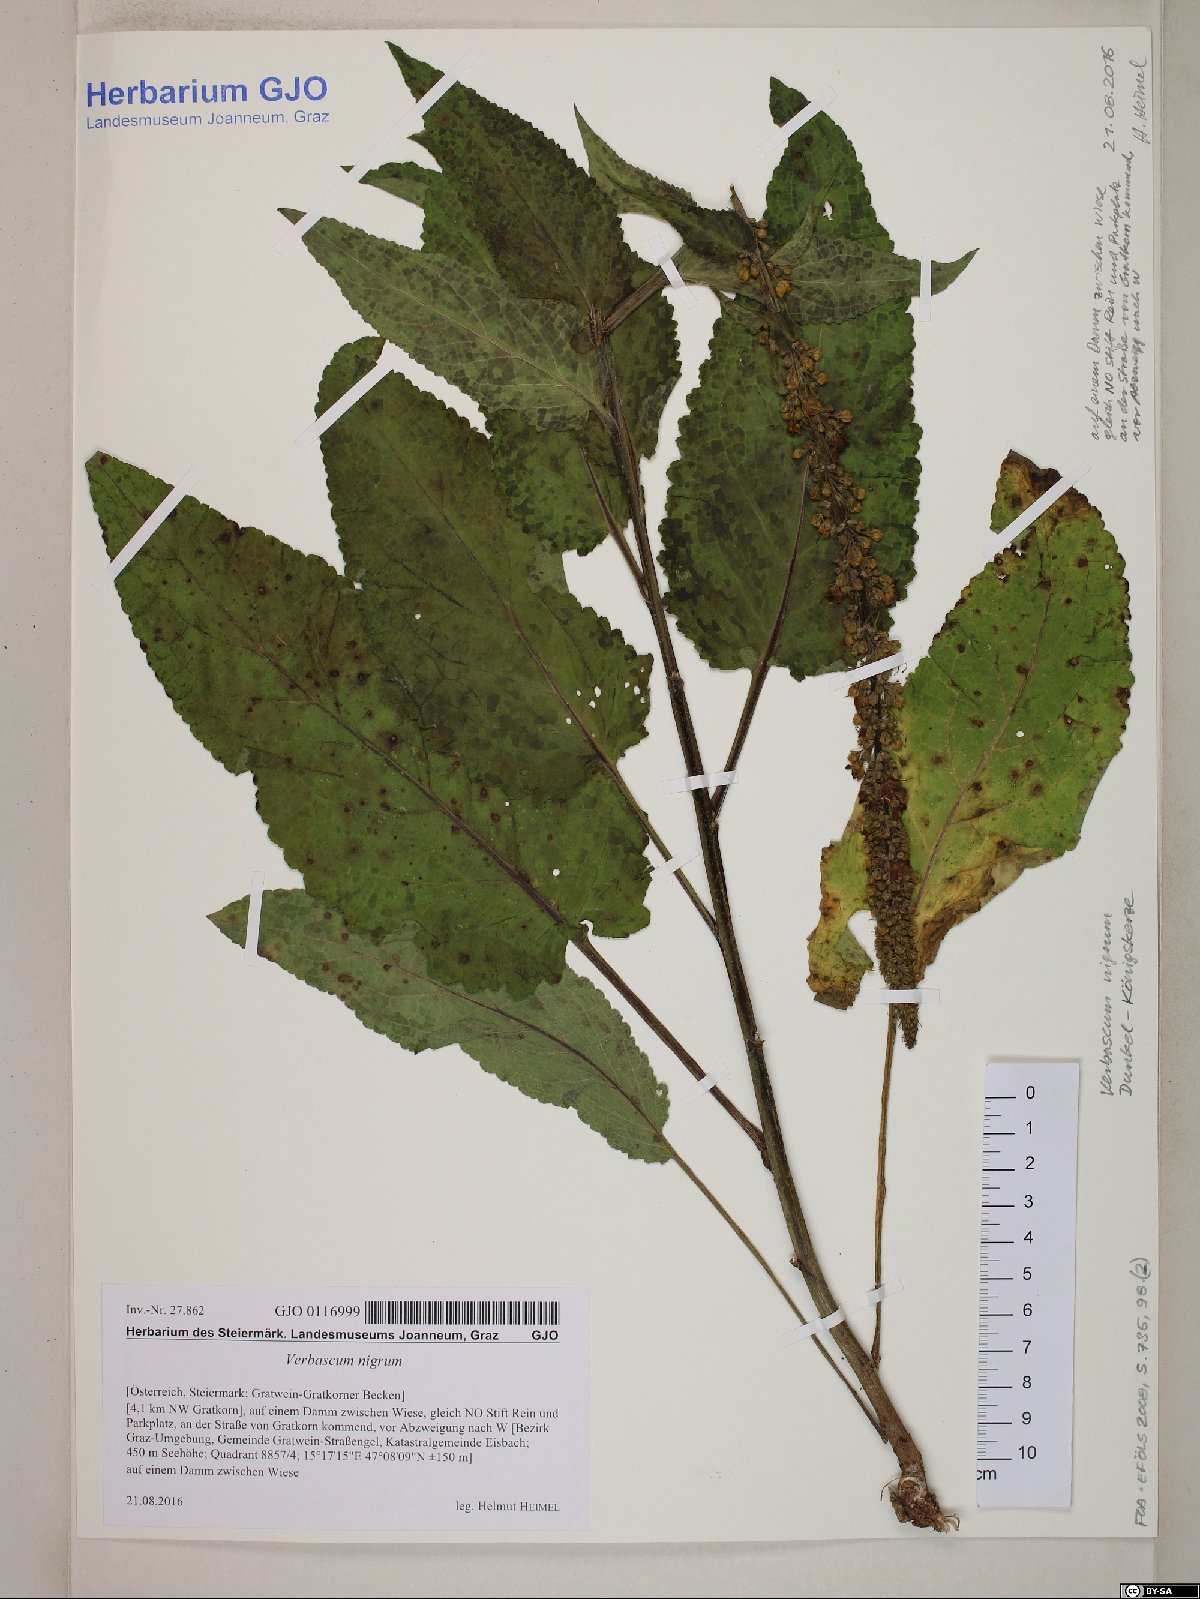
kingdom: Plantae
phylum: Tracheophyta
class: Magnoliopsida
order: Lamiales
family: Scrophulariaceae
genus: Verbascum
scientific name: Verbascum nigrum
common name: Dark mullein
